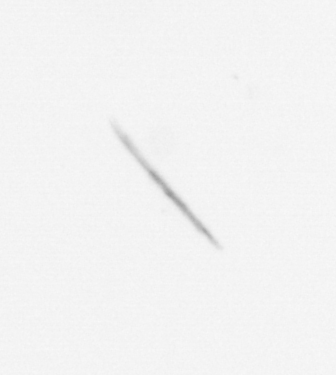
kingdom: Chromista
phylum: Ochrophyta
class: Bacillariophyceae
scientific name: Bacillariophyceae
